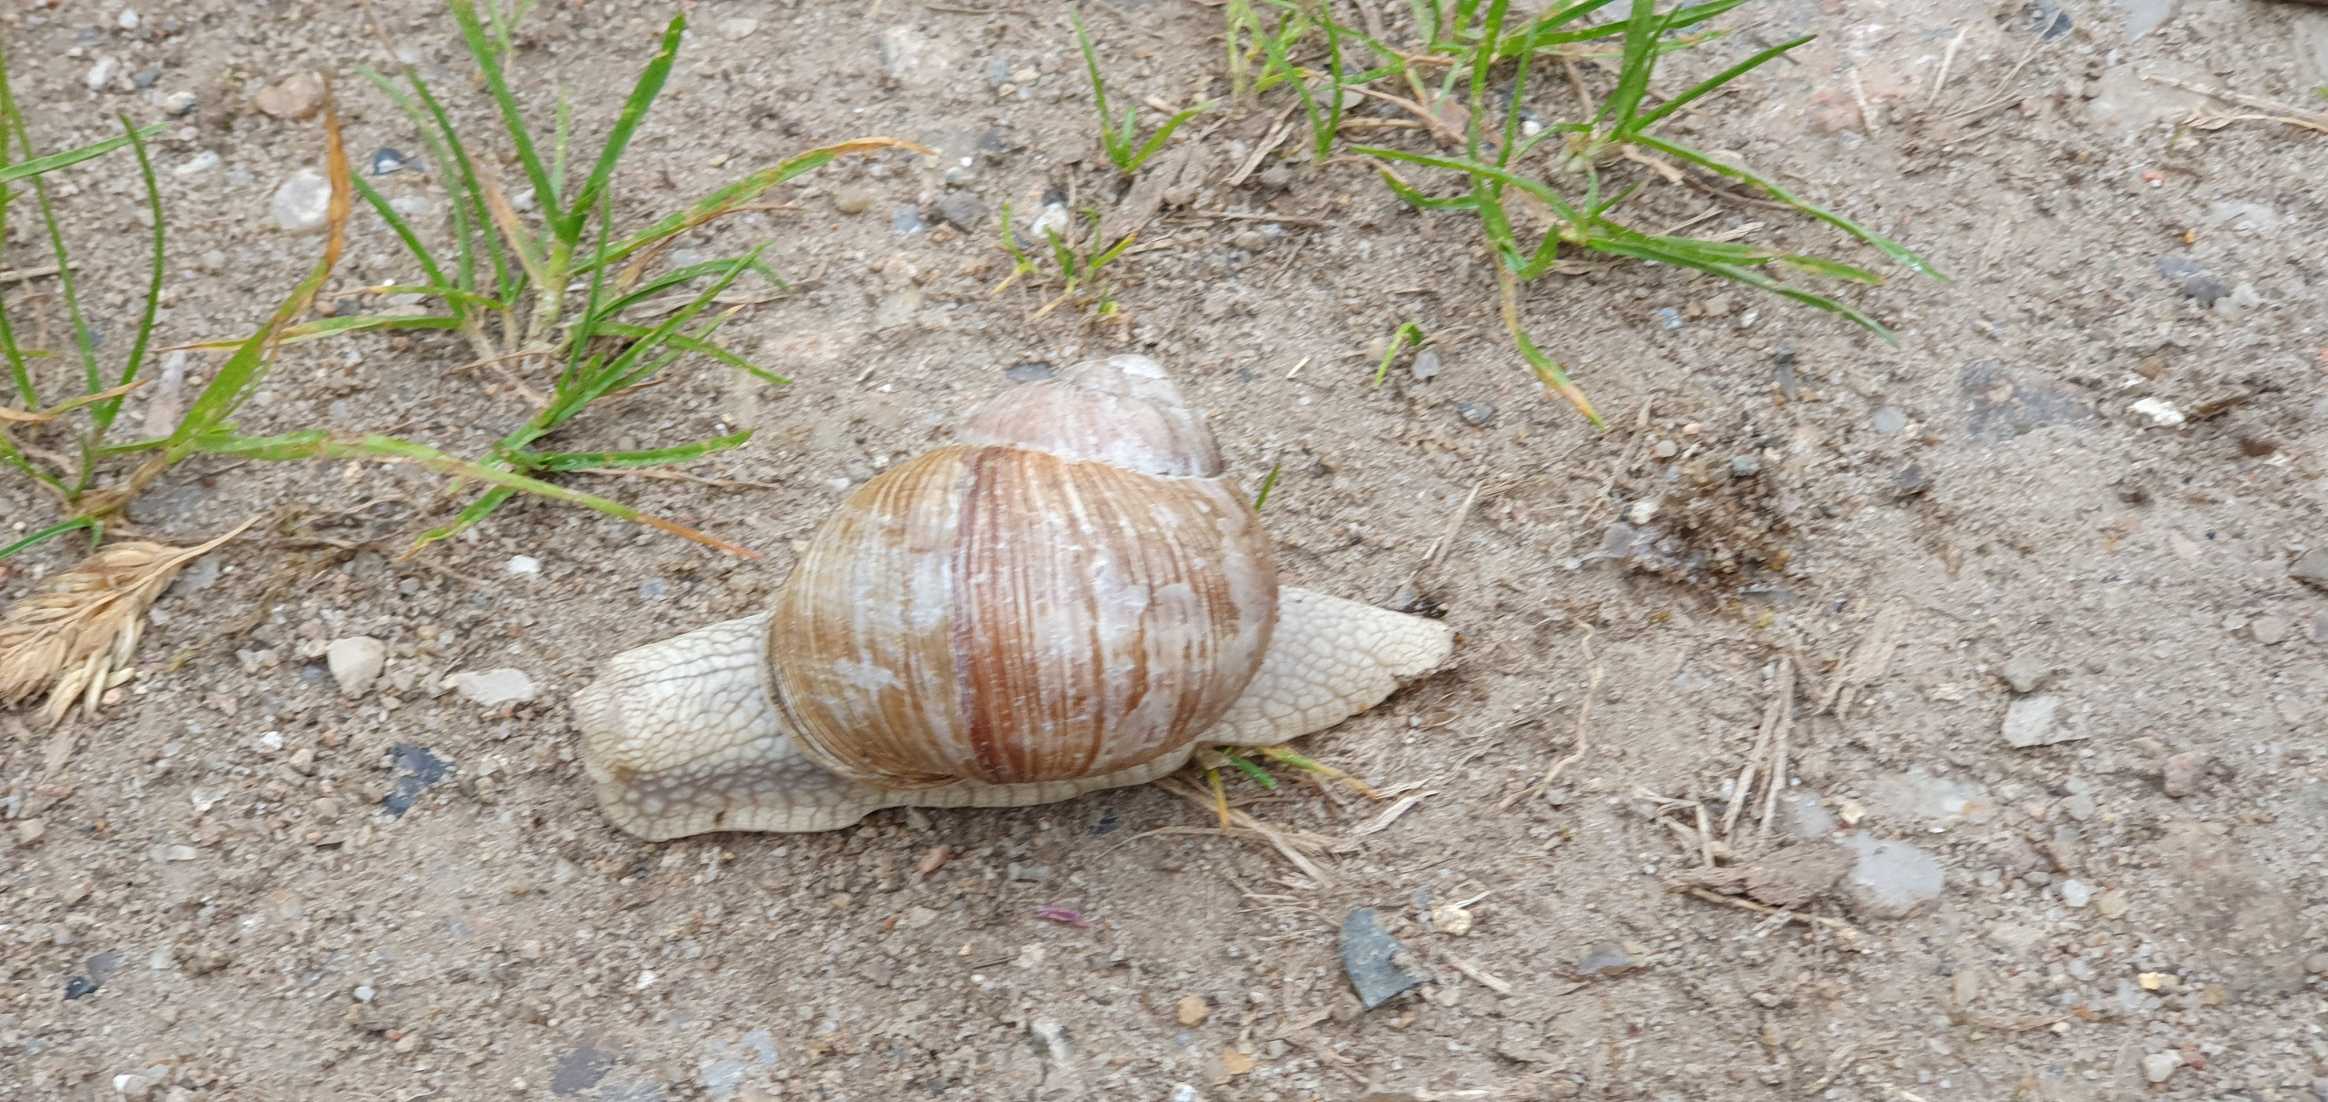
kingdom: Animalia
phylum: Mollusca
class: Gastropoda
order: Stylommatophora
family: Helicidae
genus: Helix
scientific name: Helix pomatia
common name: Vinbjergsnegl
